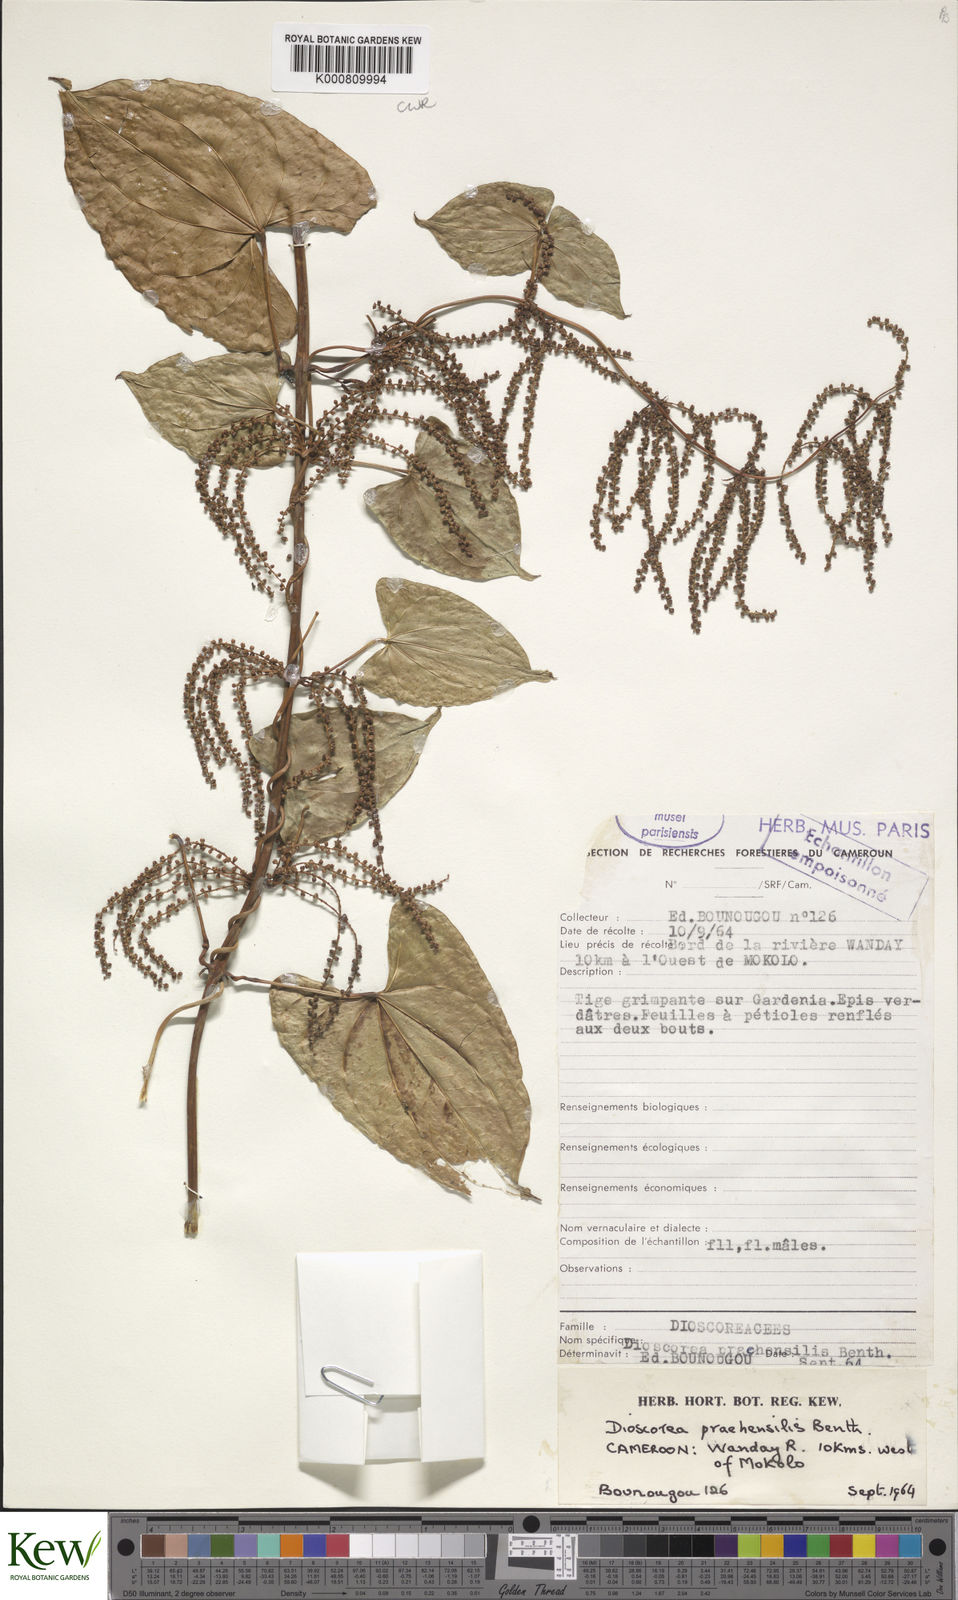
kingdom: Plantae
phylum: Tracheophyta
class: Liliopsida
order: Dioscoreales
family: Dioscoreaceae
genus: Dioscorea
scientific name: Dioscorea praehensilis
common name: Bush yam
